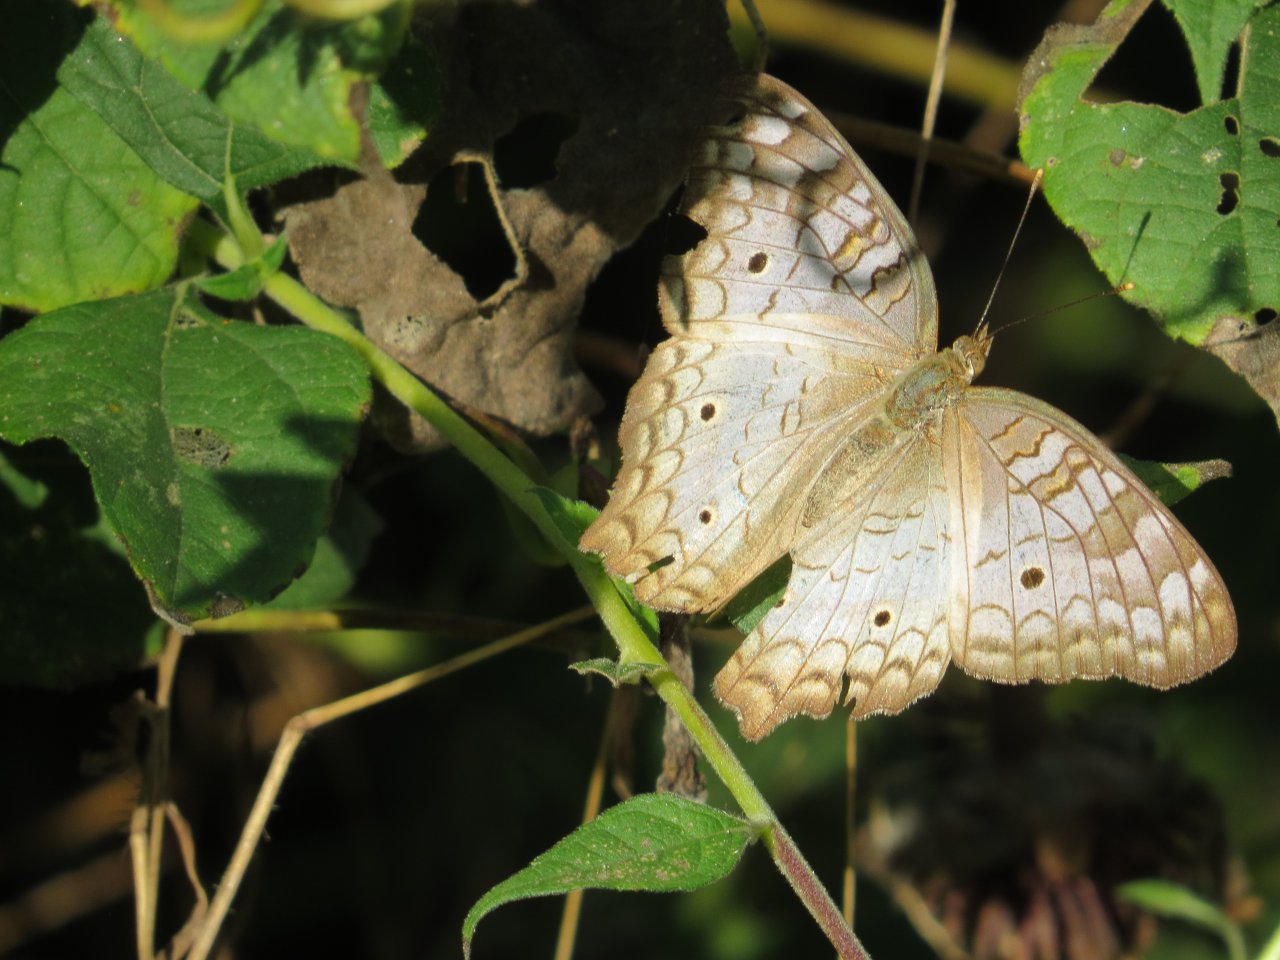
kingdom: Animalia
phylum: Arthropoda
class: Insecta
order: Lepidoptera
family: Nymphalidae
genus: Anartia
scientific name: Anartia jatrophae
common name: White Peacock
